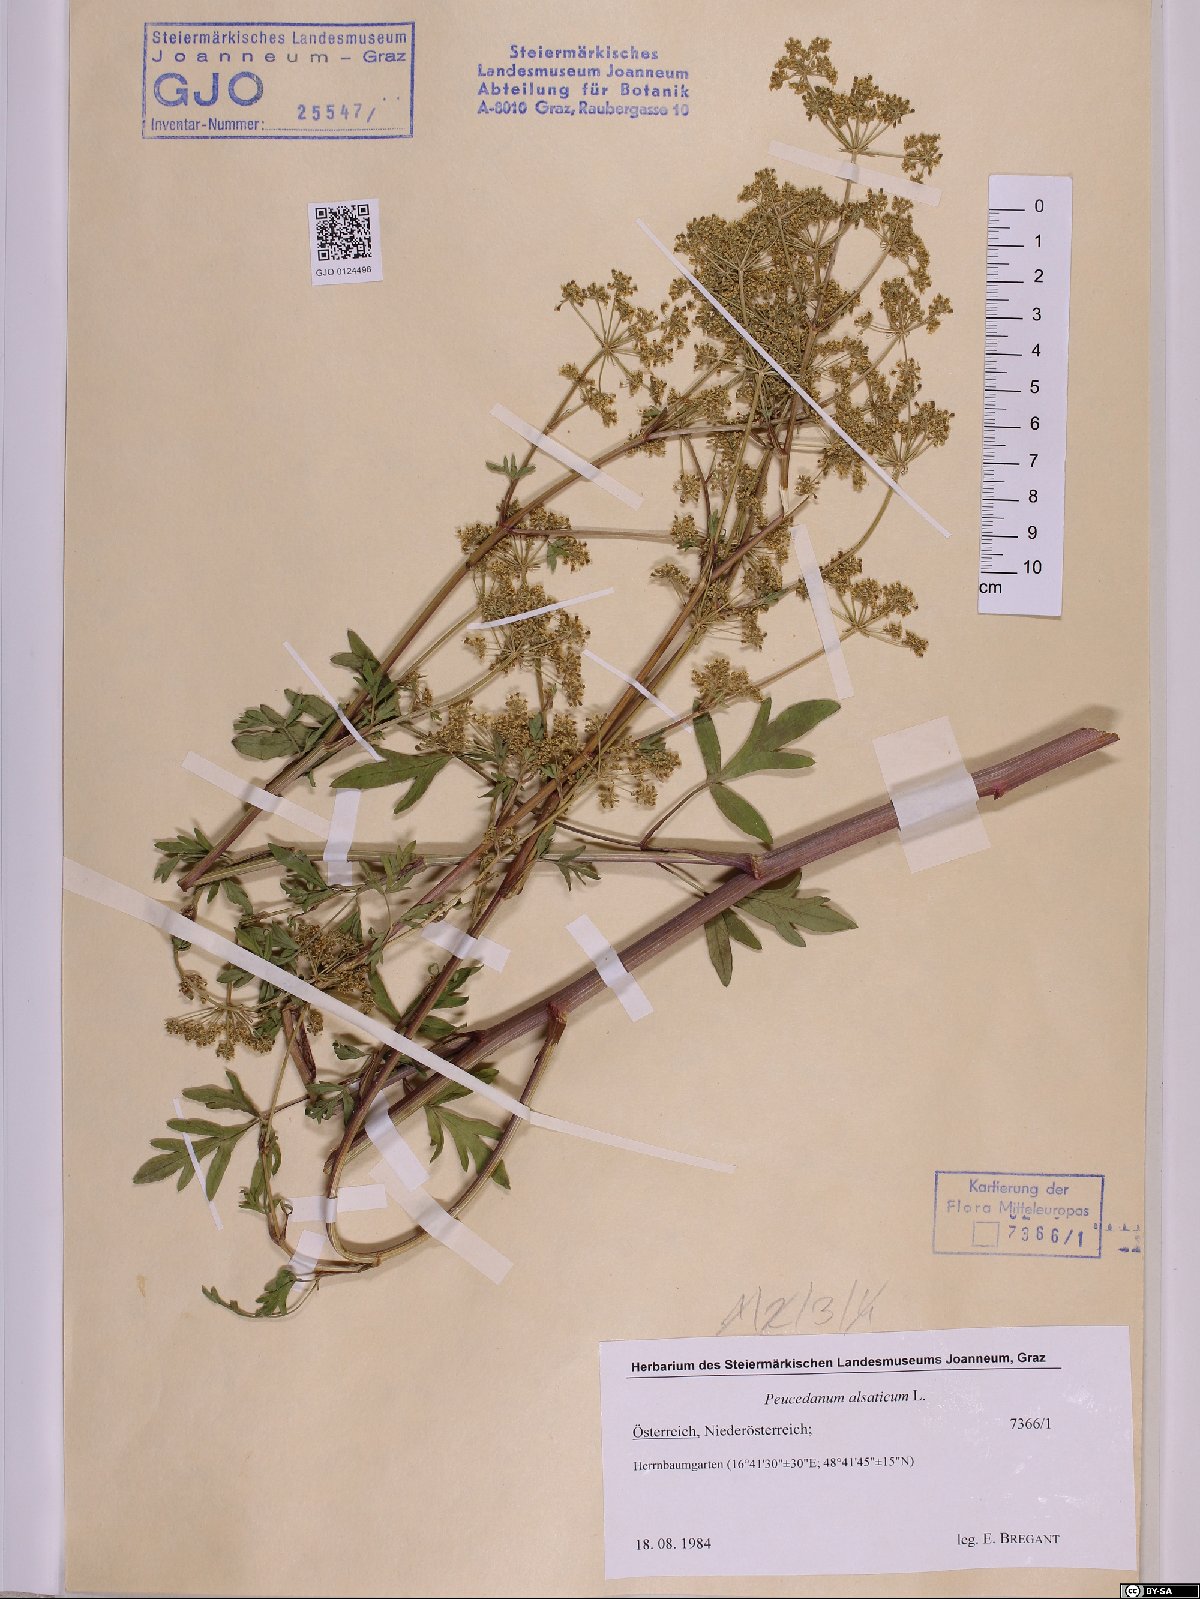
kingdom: Plantae
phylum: Tracheophyta
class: Magnoliopsida
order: Apiales
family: Apiaceae
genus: Xanthoselinum
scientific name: Xanthoselinum alsaticum
